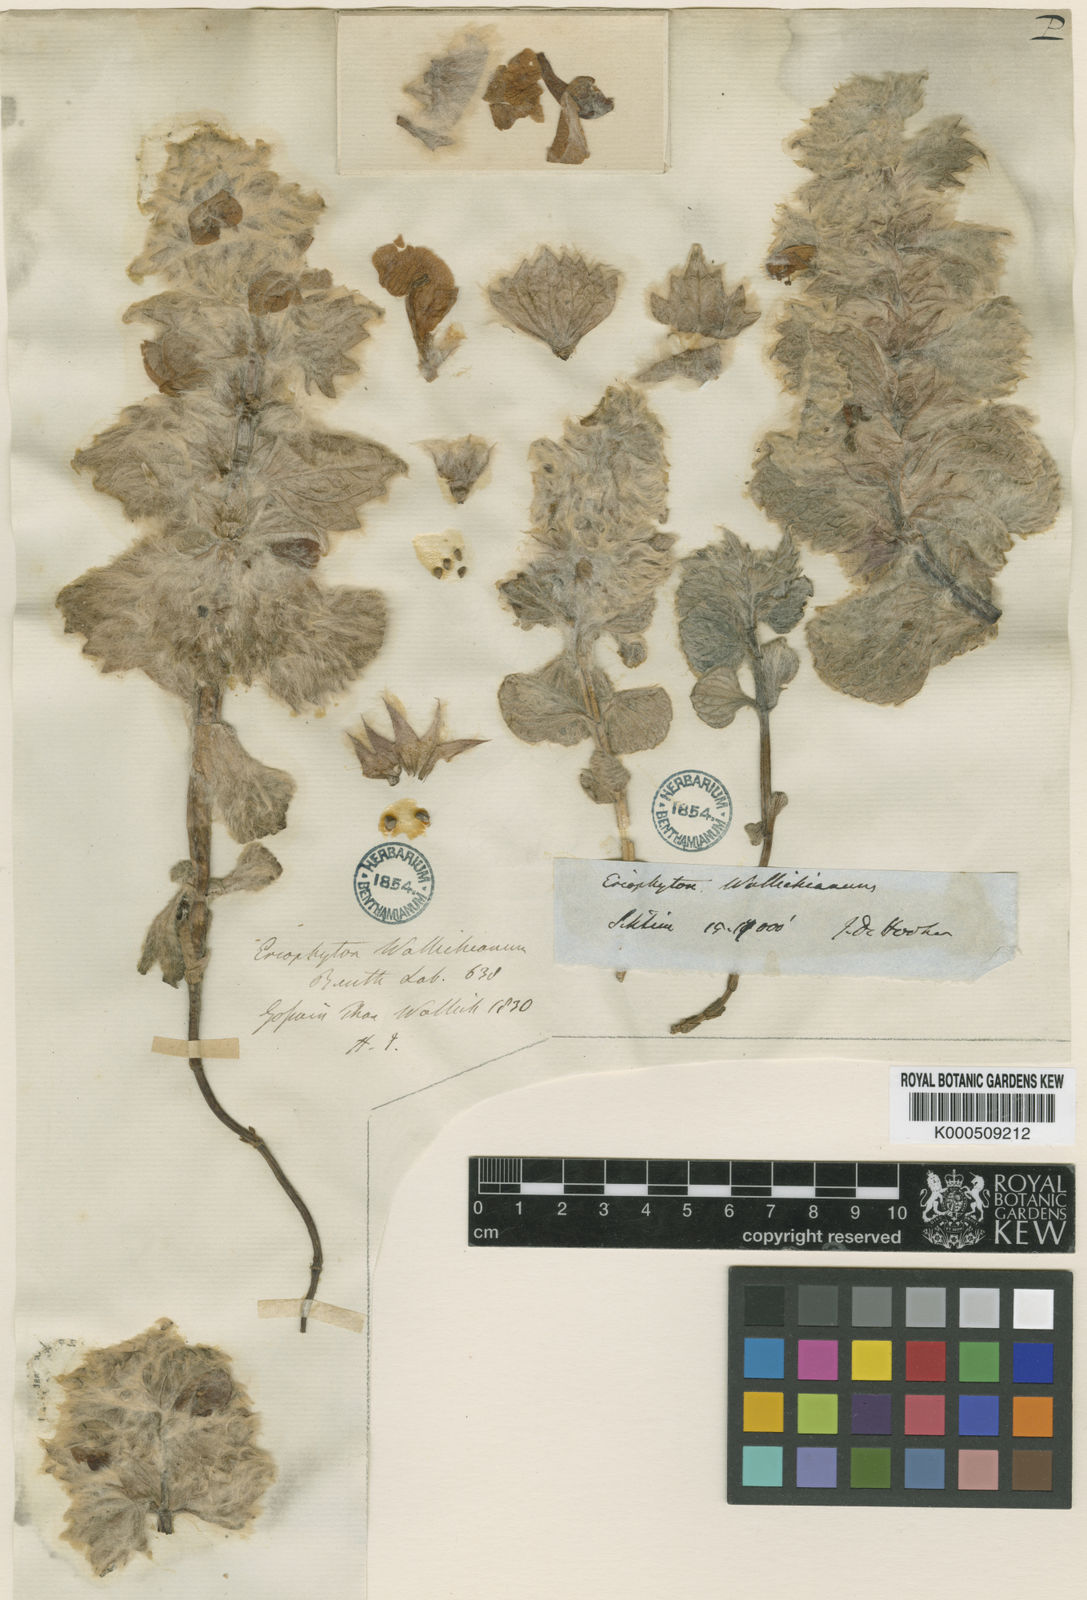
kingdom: Plantae
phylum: Tracheophyta
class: Magnoliopsida
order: Lamiales
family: Lamiaceae
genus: Eriophyton
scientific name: Eriophyton wallichii
